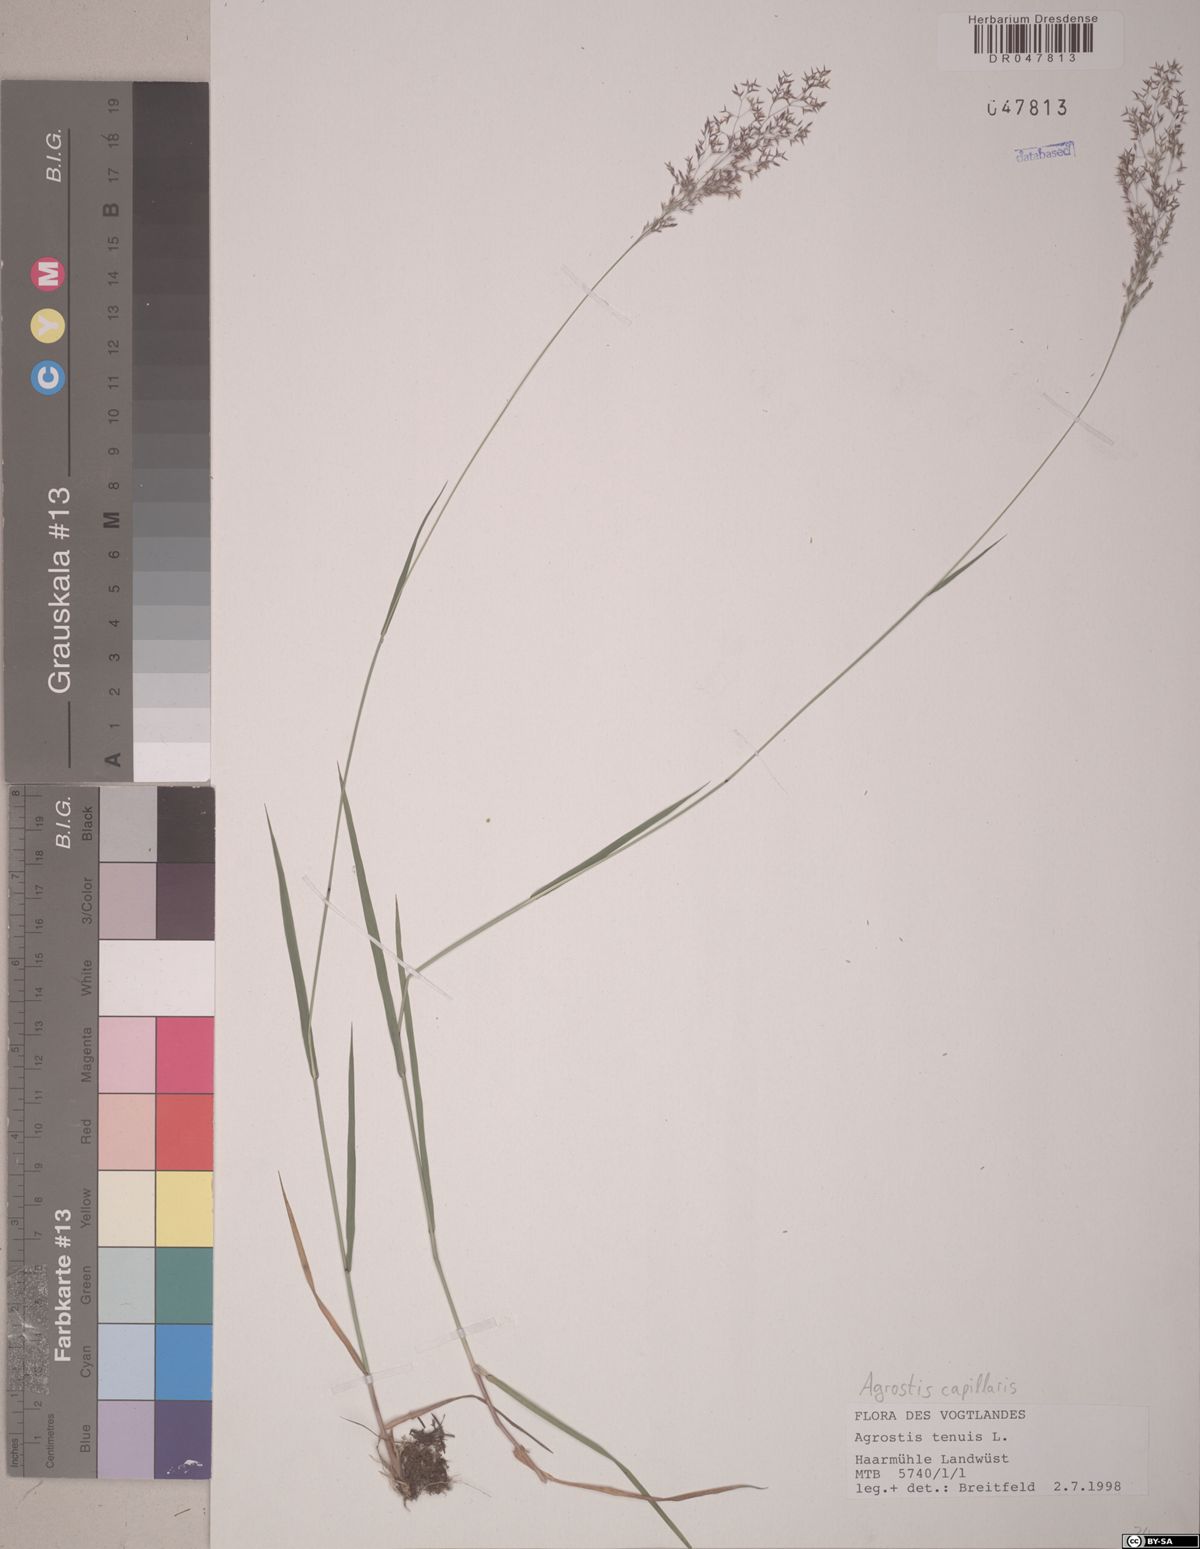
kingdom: Plantae
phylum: Tracheophyta
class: Liliopsida
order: Poales
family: Poaceae
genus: Agrostis
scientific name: Agrostis capillaris
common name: Colonial bentgrass
